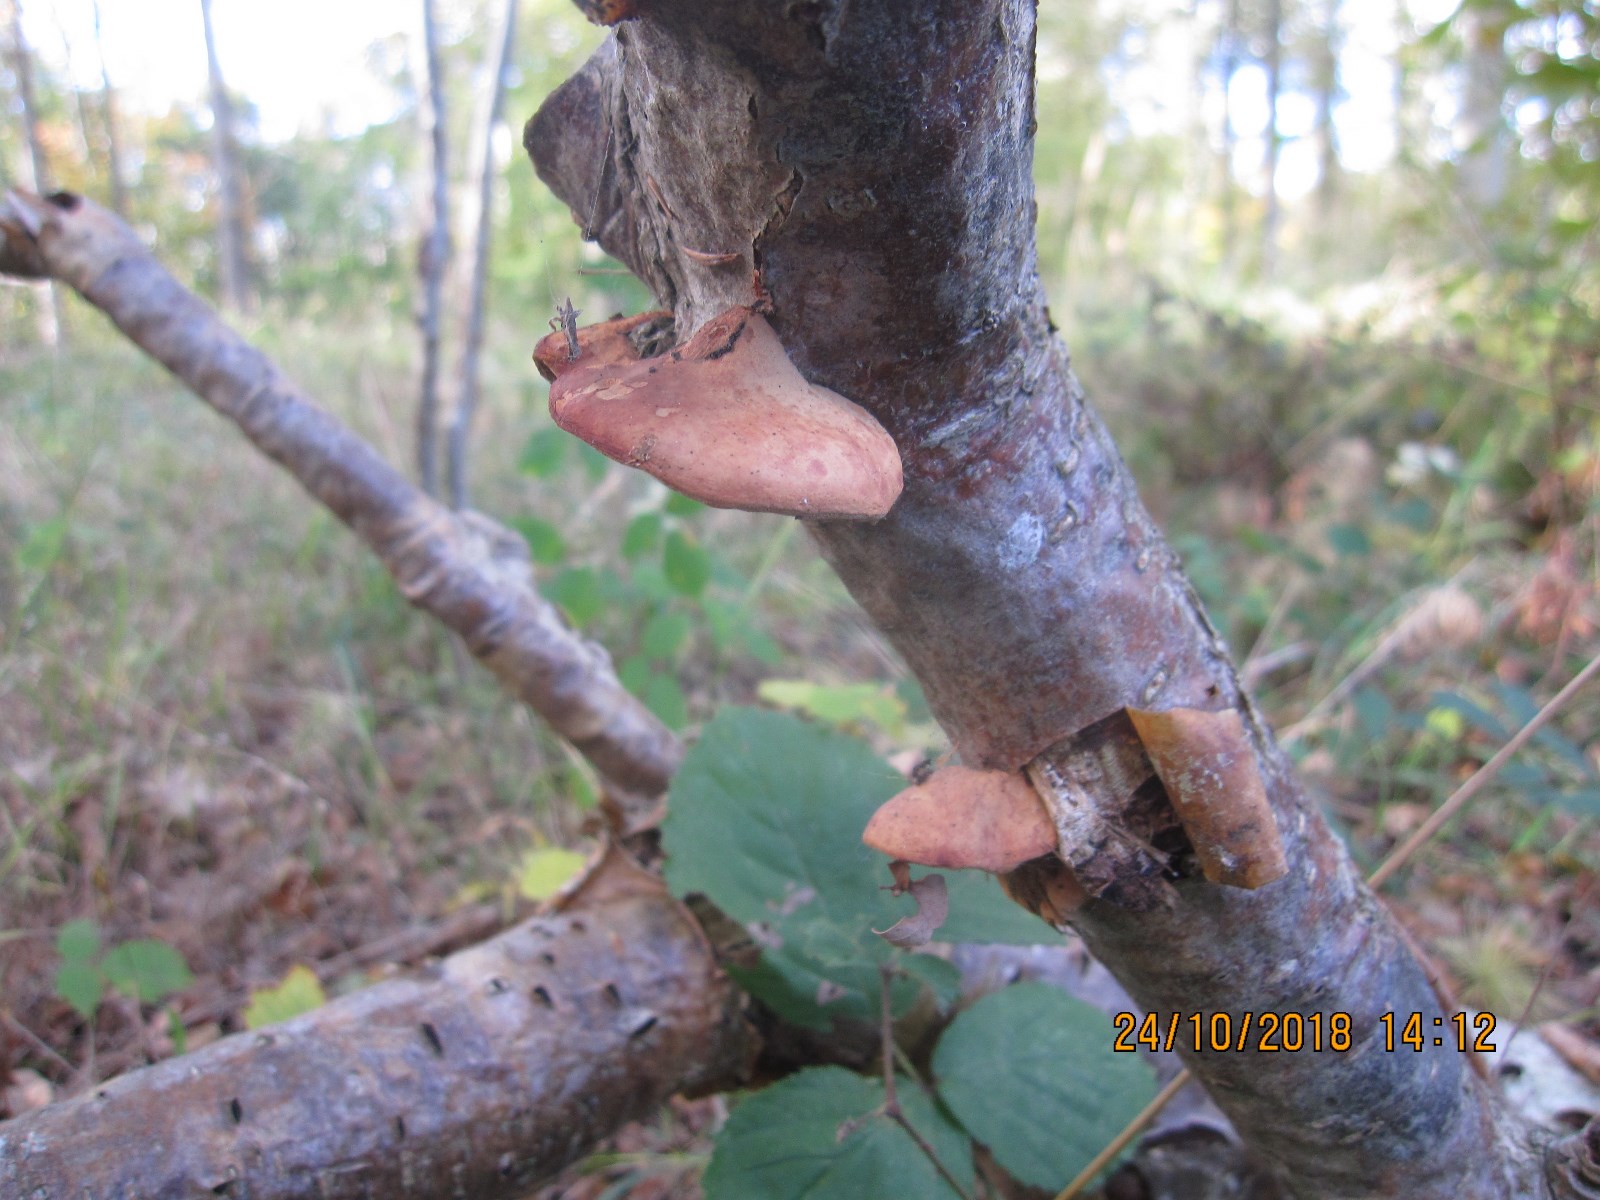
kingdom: Fungi
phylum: Basidiomycota
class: Agaricomycetes
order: Polyporales
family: Phanerochaetaceae
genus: Hapalopilus
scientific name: Hapalopilus rutilans
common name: rødlig okkerporesvamp
